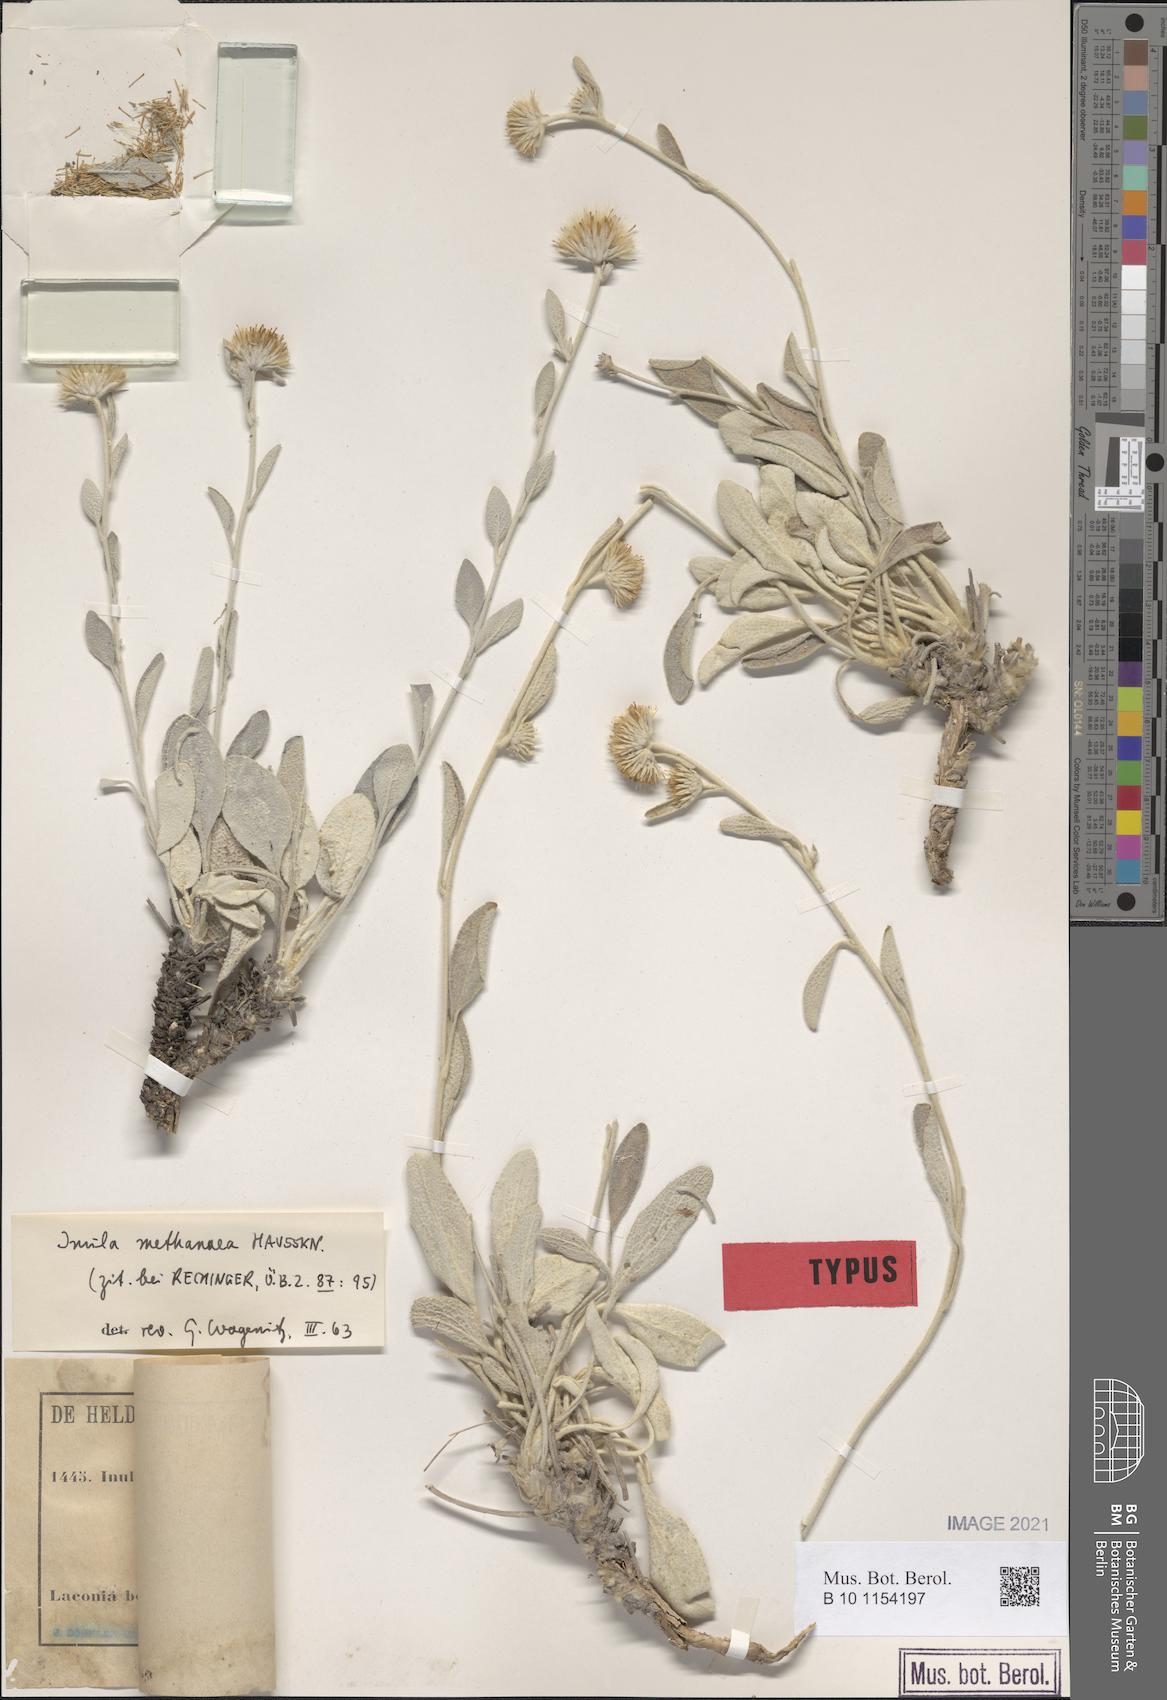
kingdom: Plantae
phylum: Tracheophyta
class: Magnoliopsida
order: Asterales
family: Asteraceae
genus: Pentanema
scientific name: Pentanema verbascifolium
